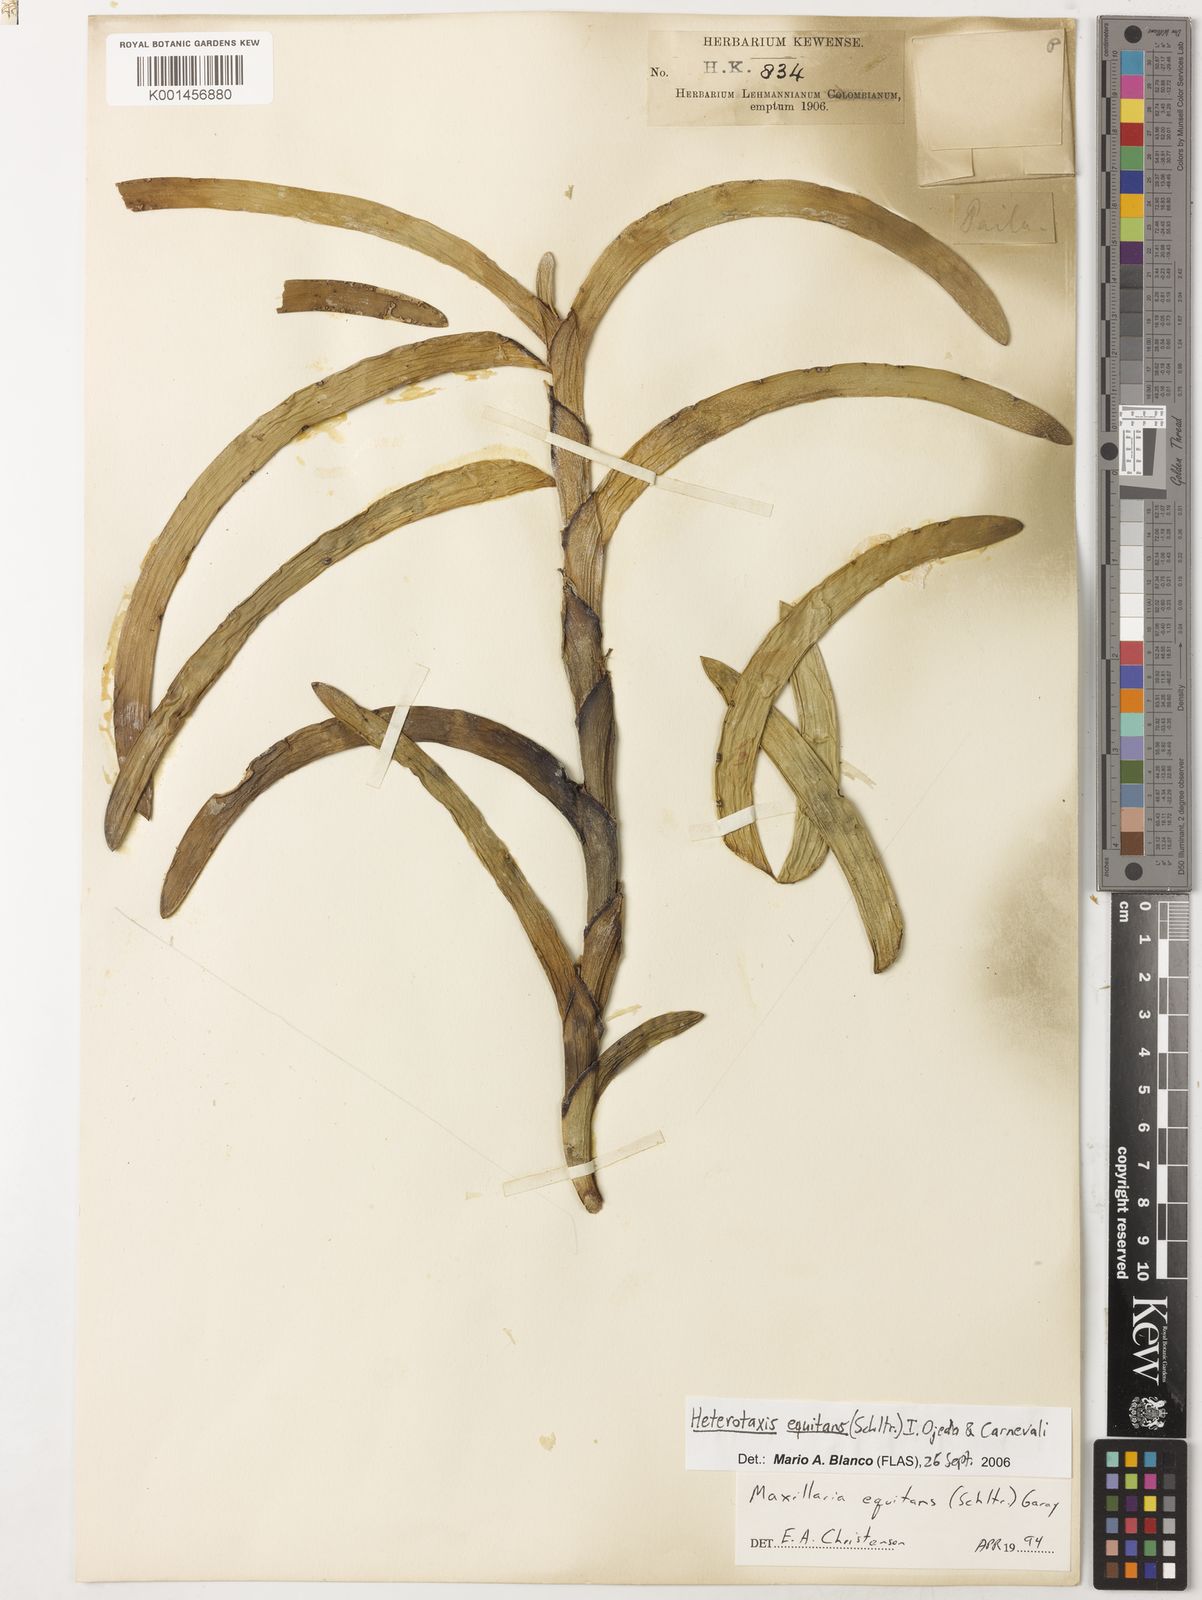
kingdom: Plantae
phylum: Tracheophyta
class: Liliopsida
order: Asparagales
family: Orchidaceae
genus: Maxillaria
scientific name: Maxillaria equitans
